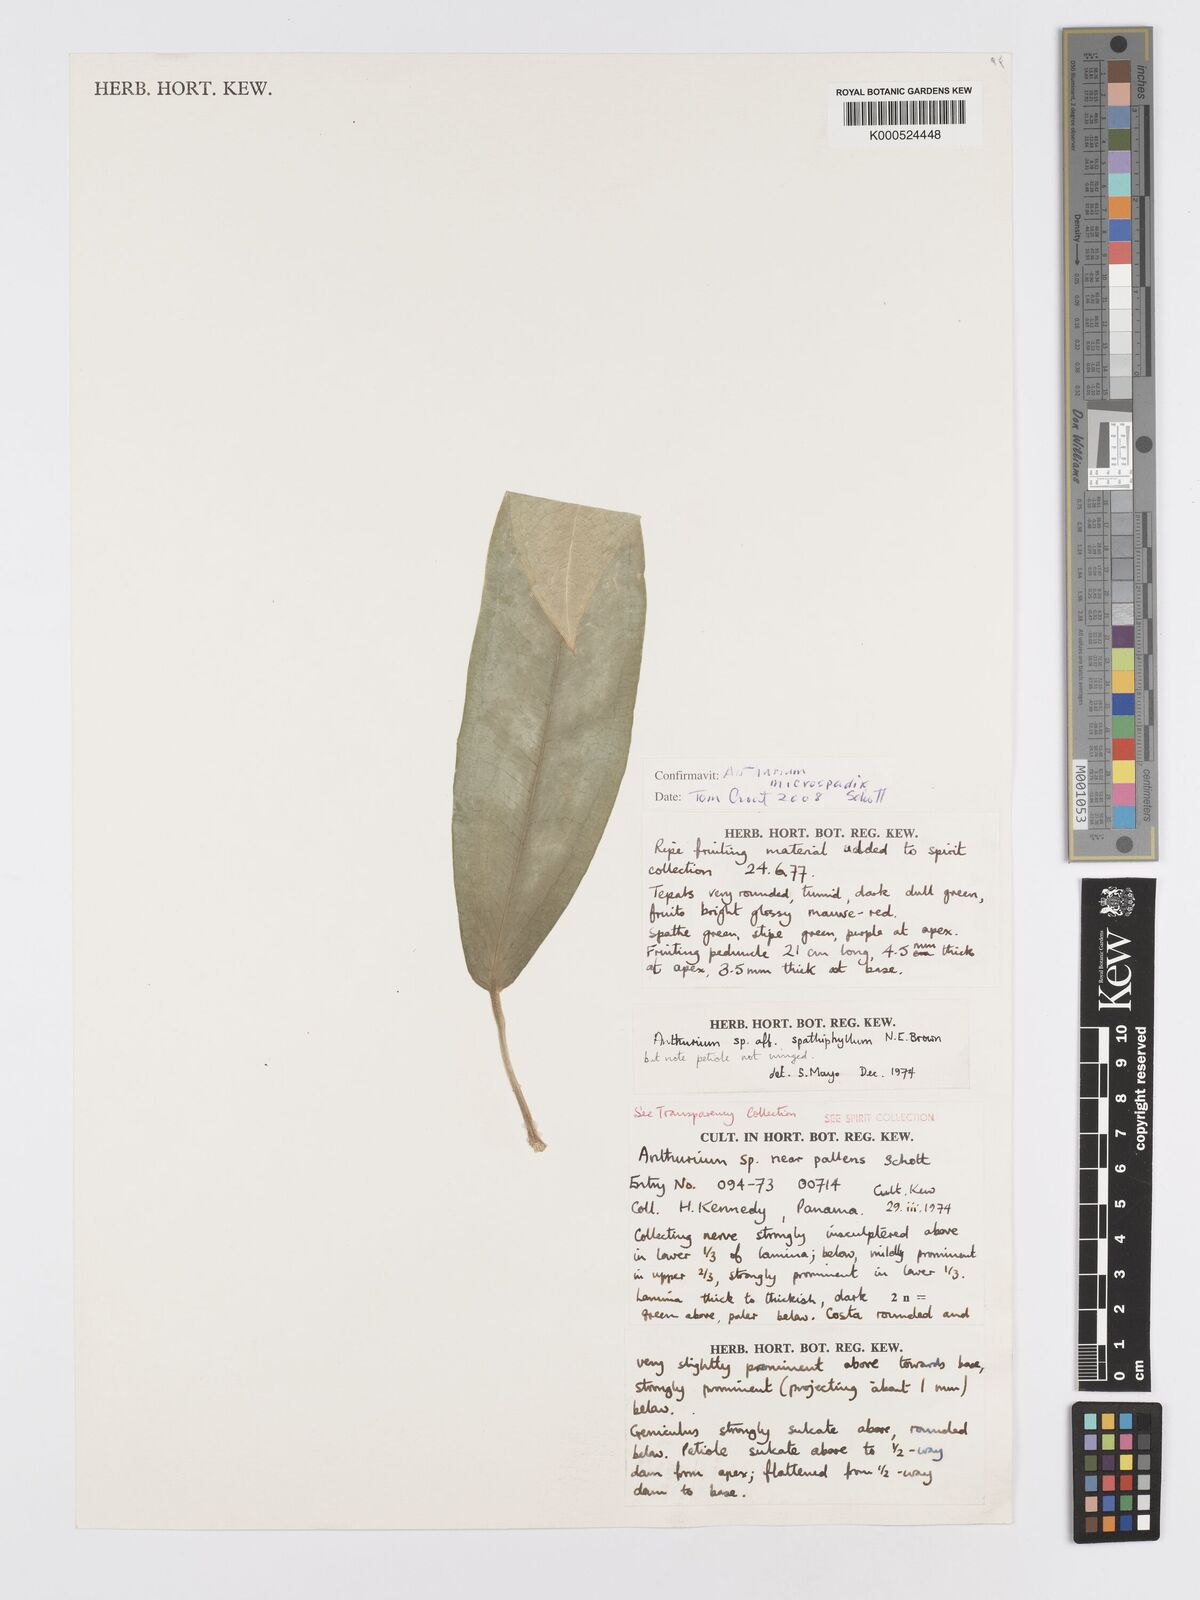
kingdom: Plantae
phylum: Tracheophyta
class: Liliopsida
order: Alismatales
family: Araceae
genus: Anthurium
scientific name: Anthurium microspadix
